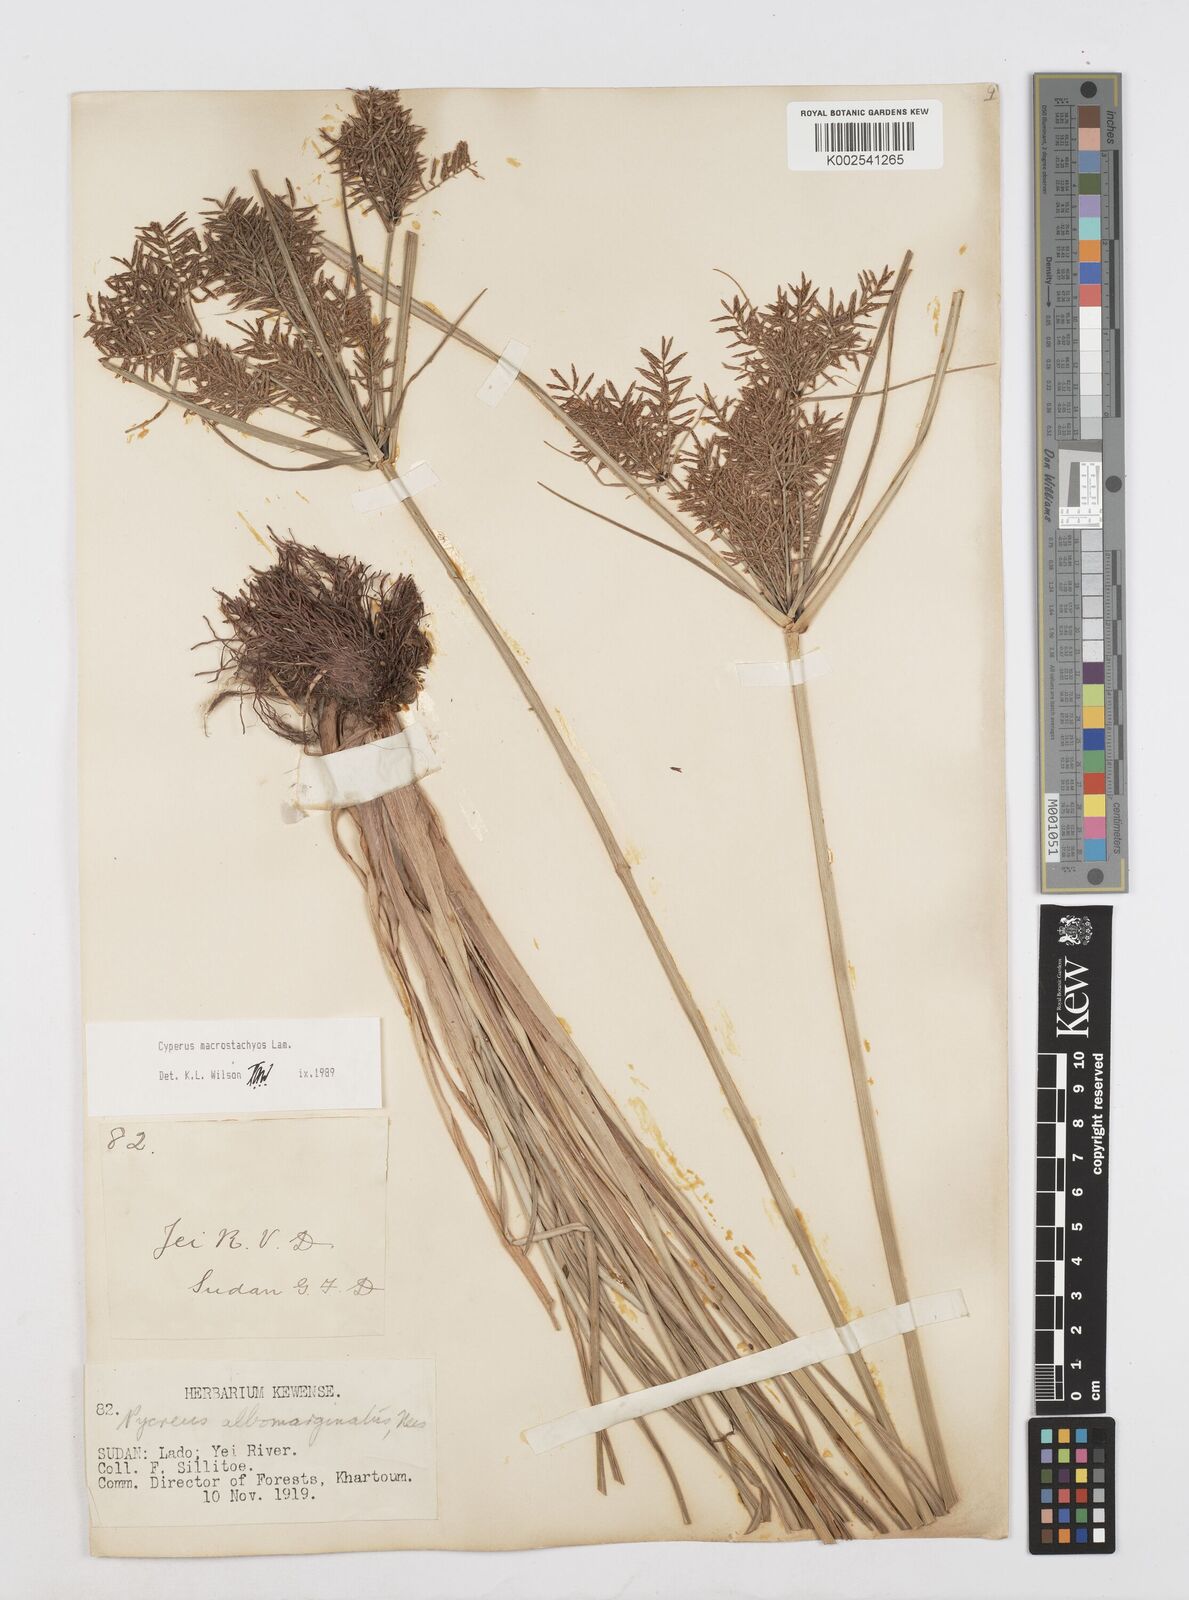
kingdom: Plantae
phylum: Tracheophyta
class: Liliopsida
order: Poales
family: Cyperaceae
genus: Cyperus
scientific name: Cyperus macrostachyos
